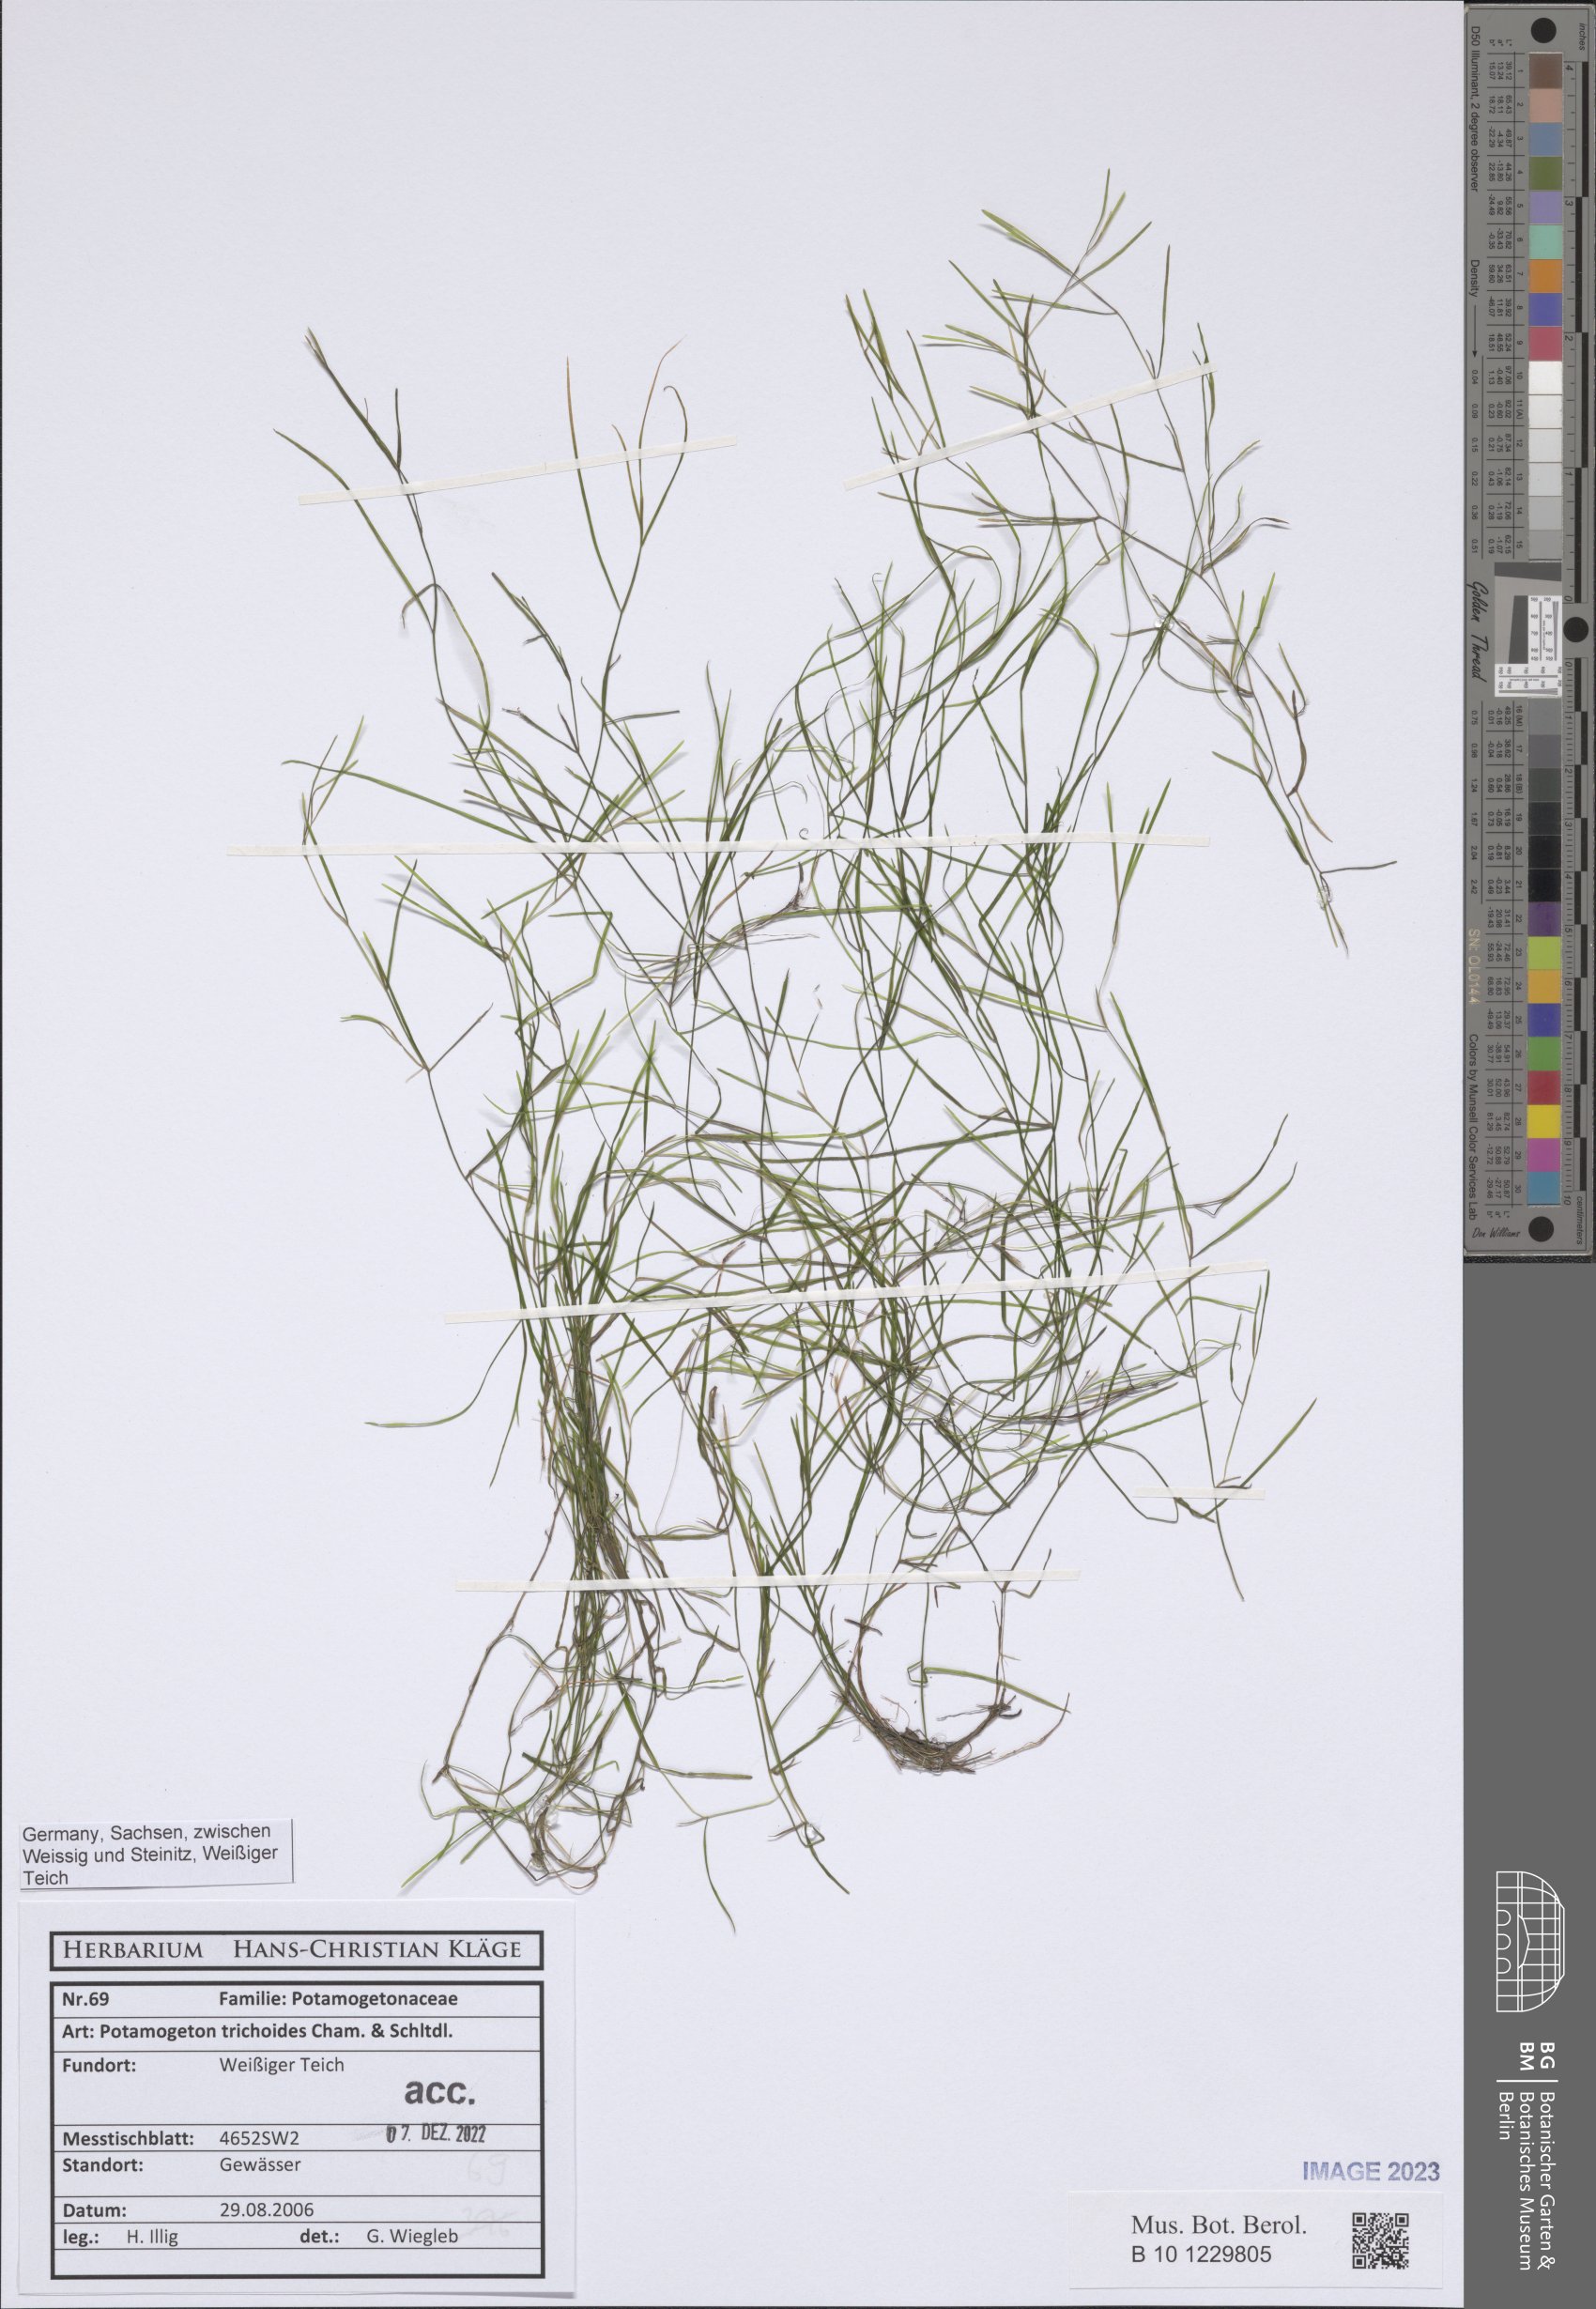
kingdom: Plantae
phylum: Tracheophyta
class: Liliopsida
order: Alismatales
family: Potamogetonaceae
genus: Potamogeton
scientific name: Potamogeton trichoides
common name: Hairlike pondweed
